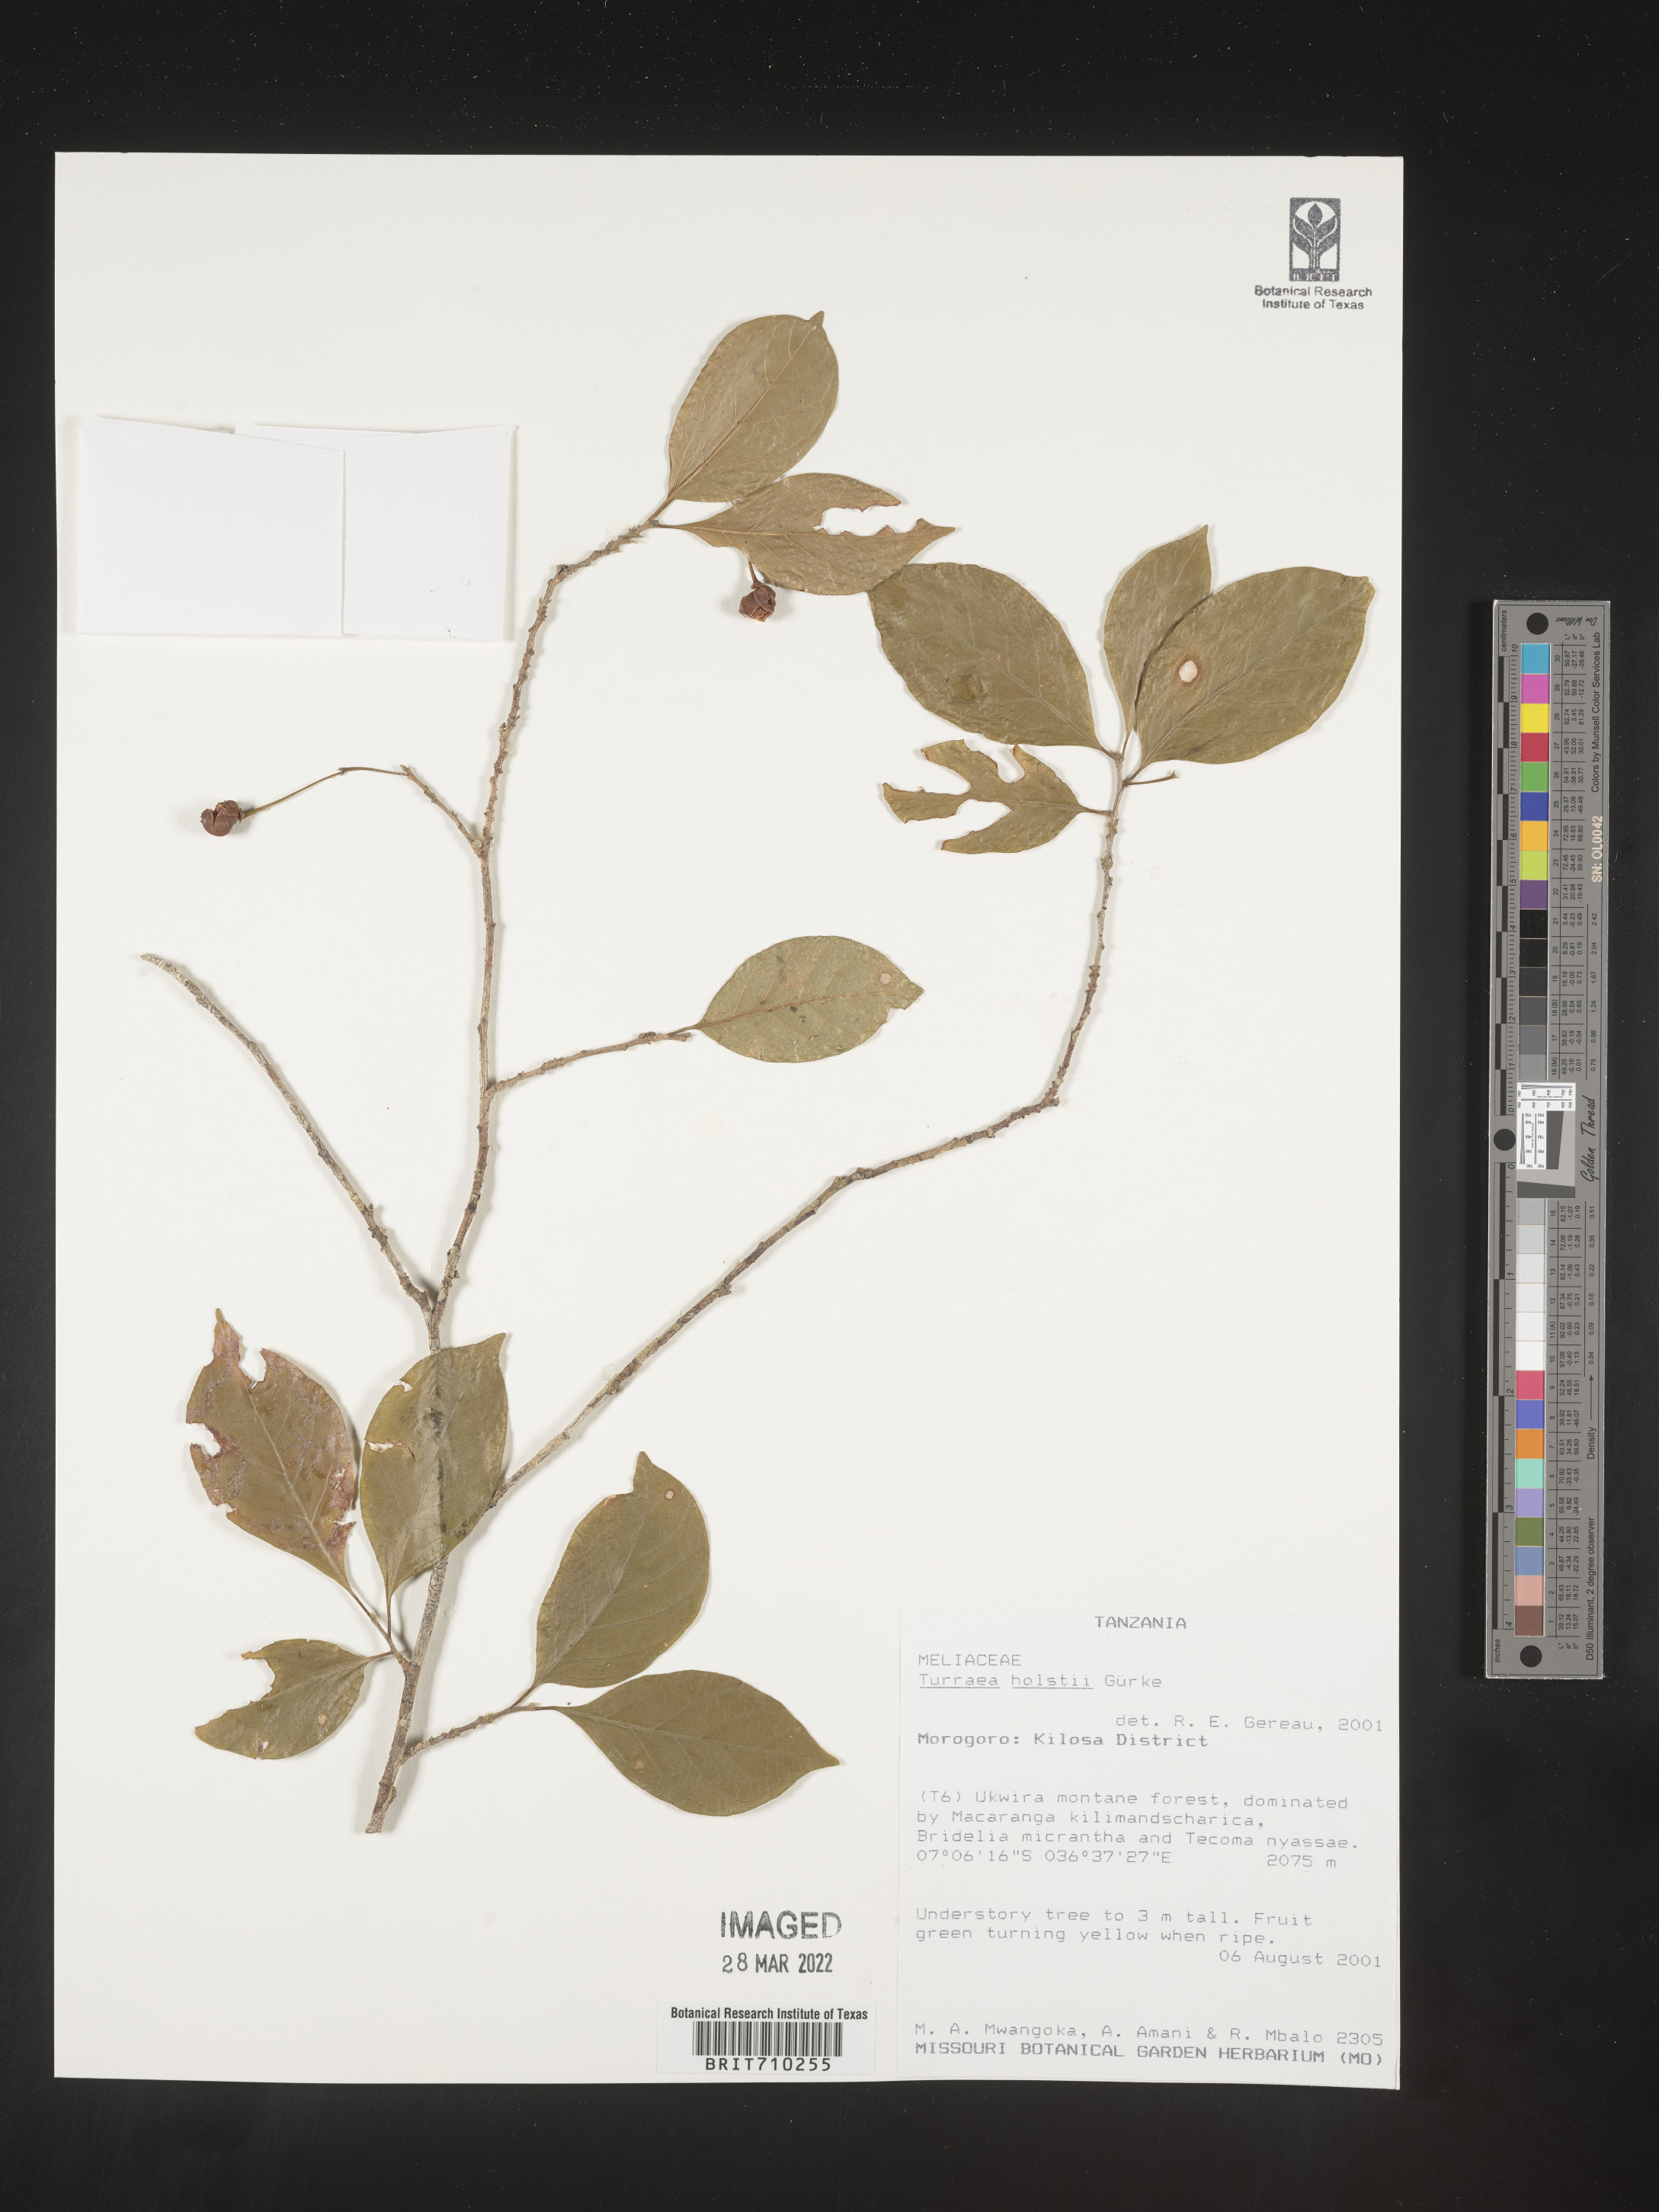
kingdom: Plantae
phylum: Tracheophyta
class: Magnoliopsida
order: Sapindales
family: Meliaceae
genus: Turraea
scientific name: Turraea
